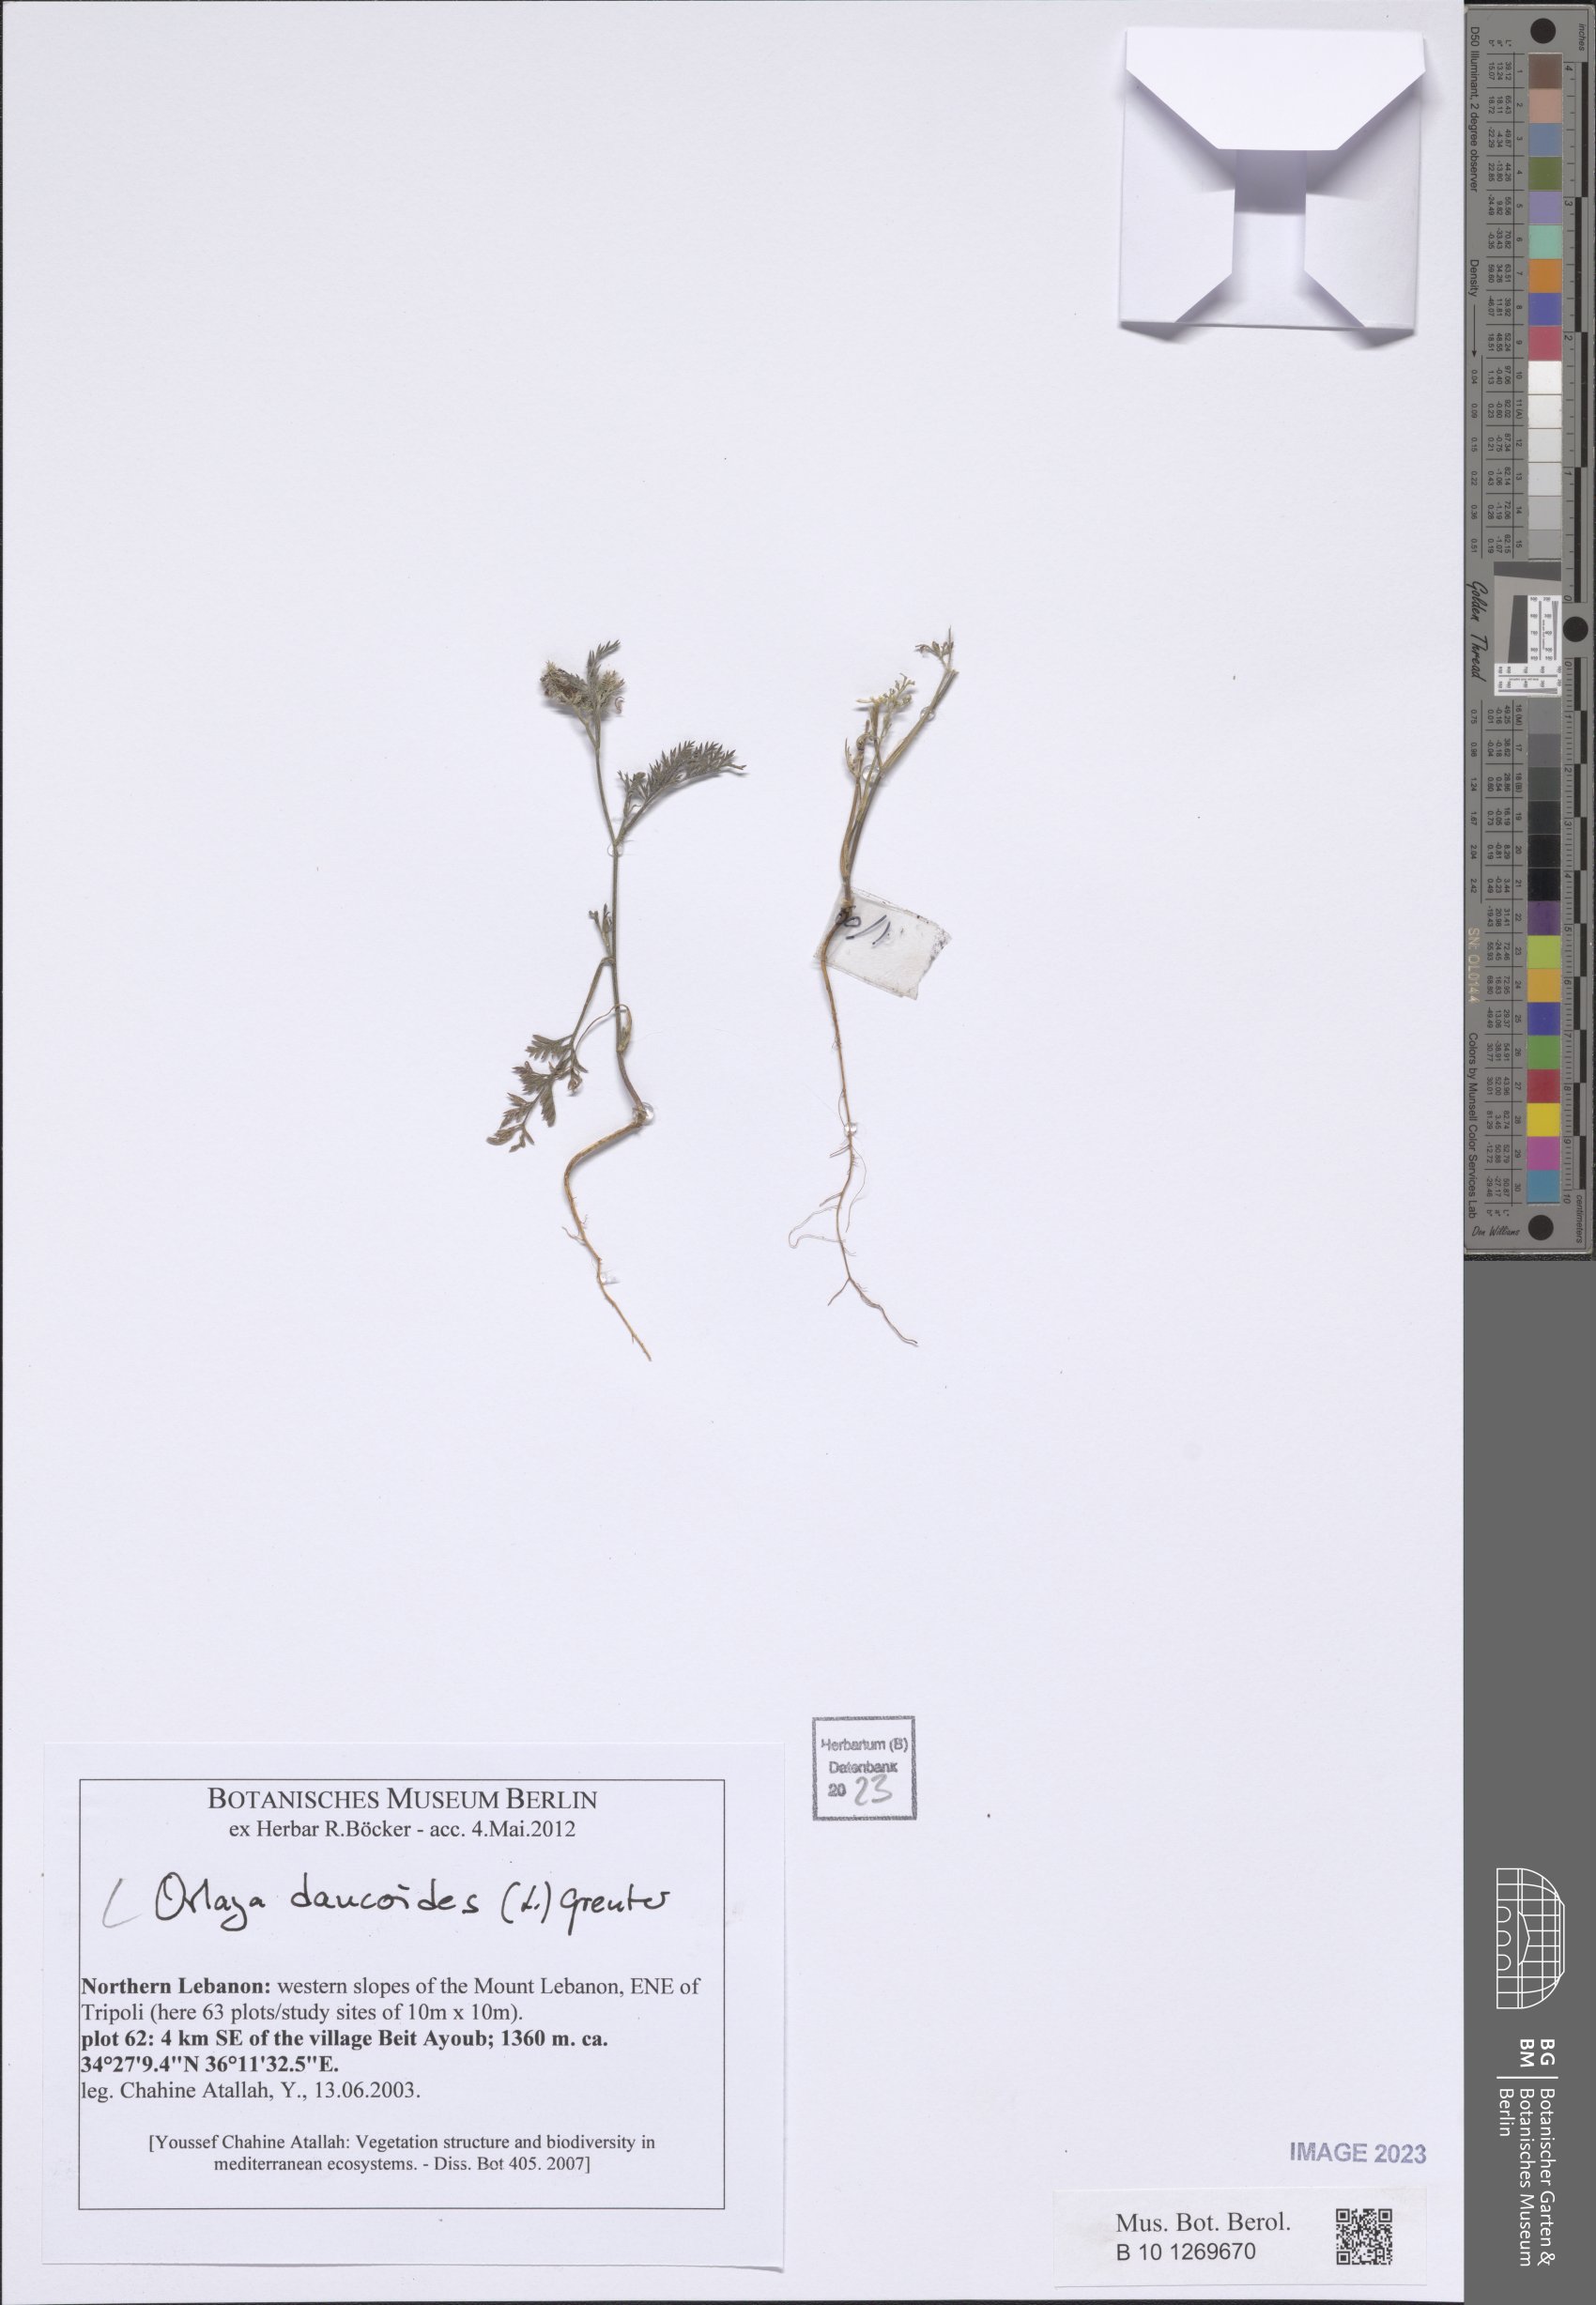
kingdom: Plantae
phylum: Tracheophyta
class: Magnoliopsida
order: Apiales
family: Apiaceae
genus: Orlaya
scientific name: Orlaya daucoides
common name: Flat-fruit orlaya
